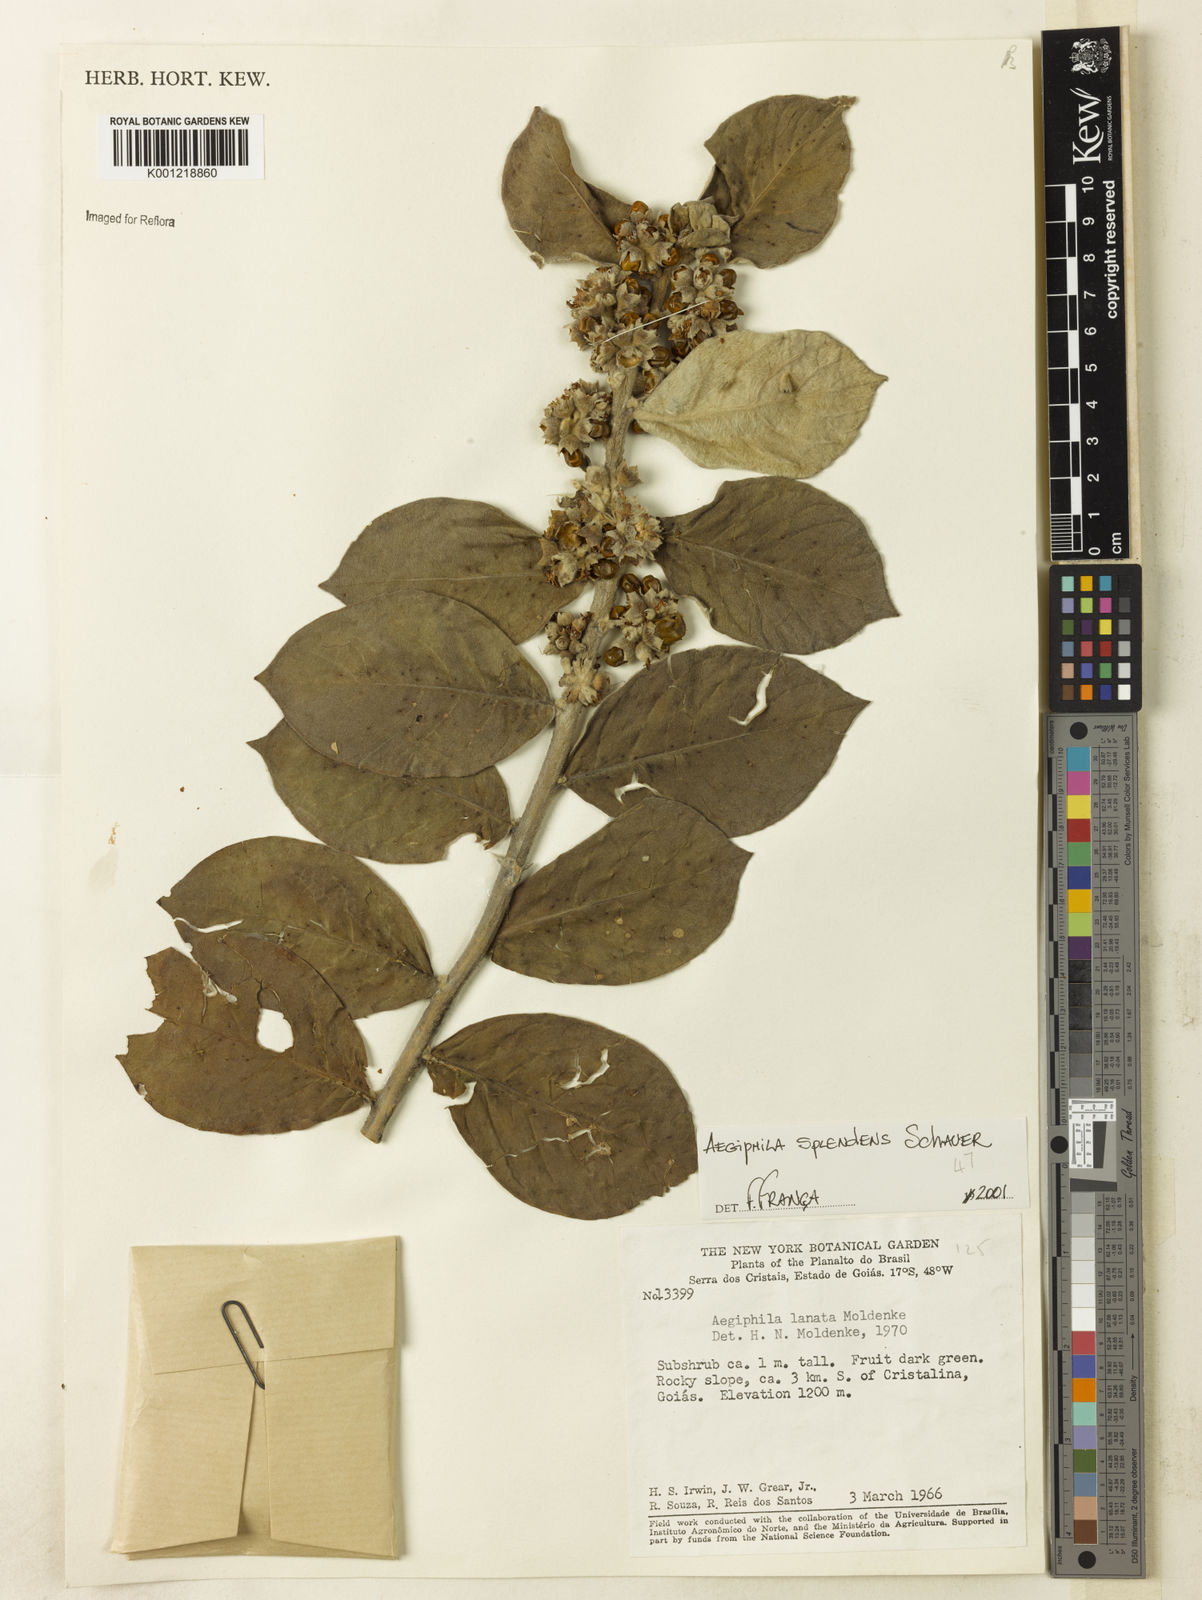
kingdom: Plantae
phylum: Tracheophyta
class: Magnoliopsida
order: Lamiales
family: Lamiaceae
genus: Aegiphila
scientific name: Aegiphila verticillata
